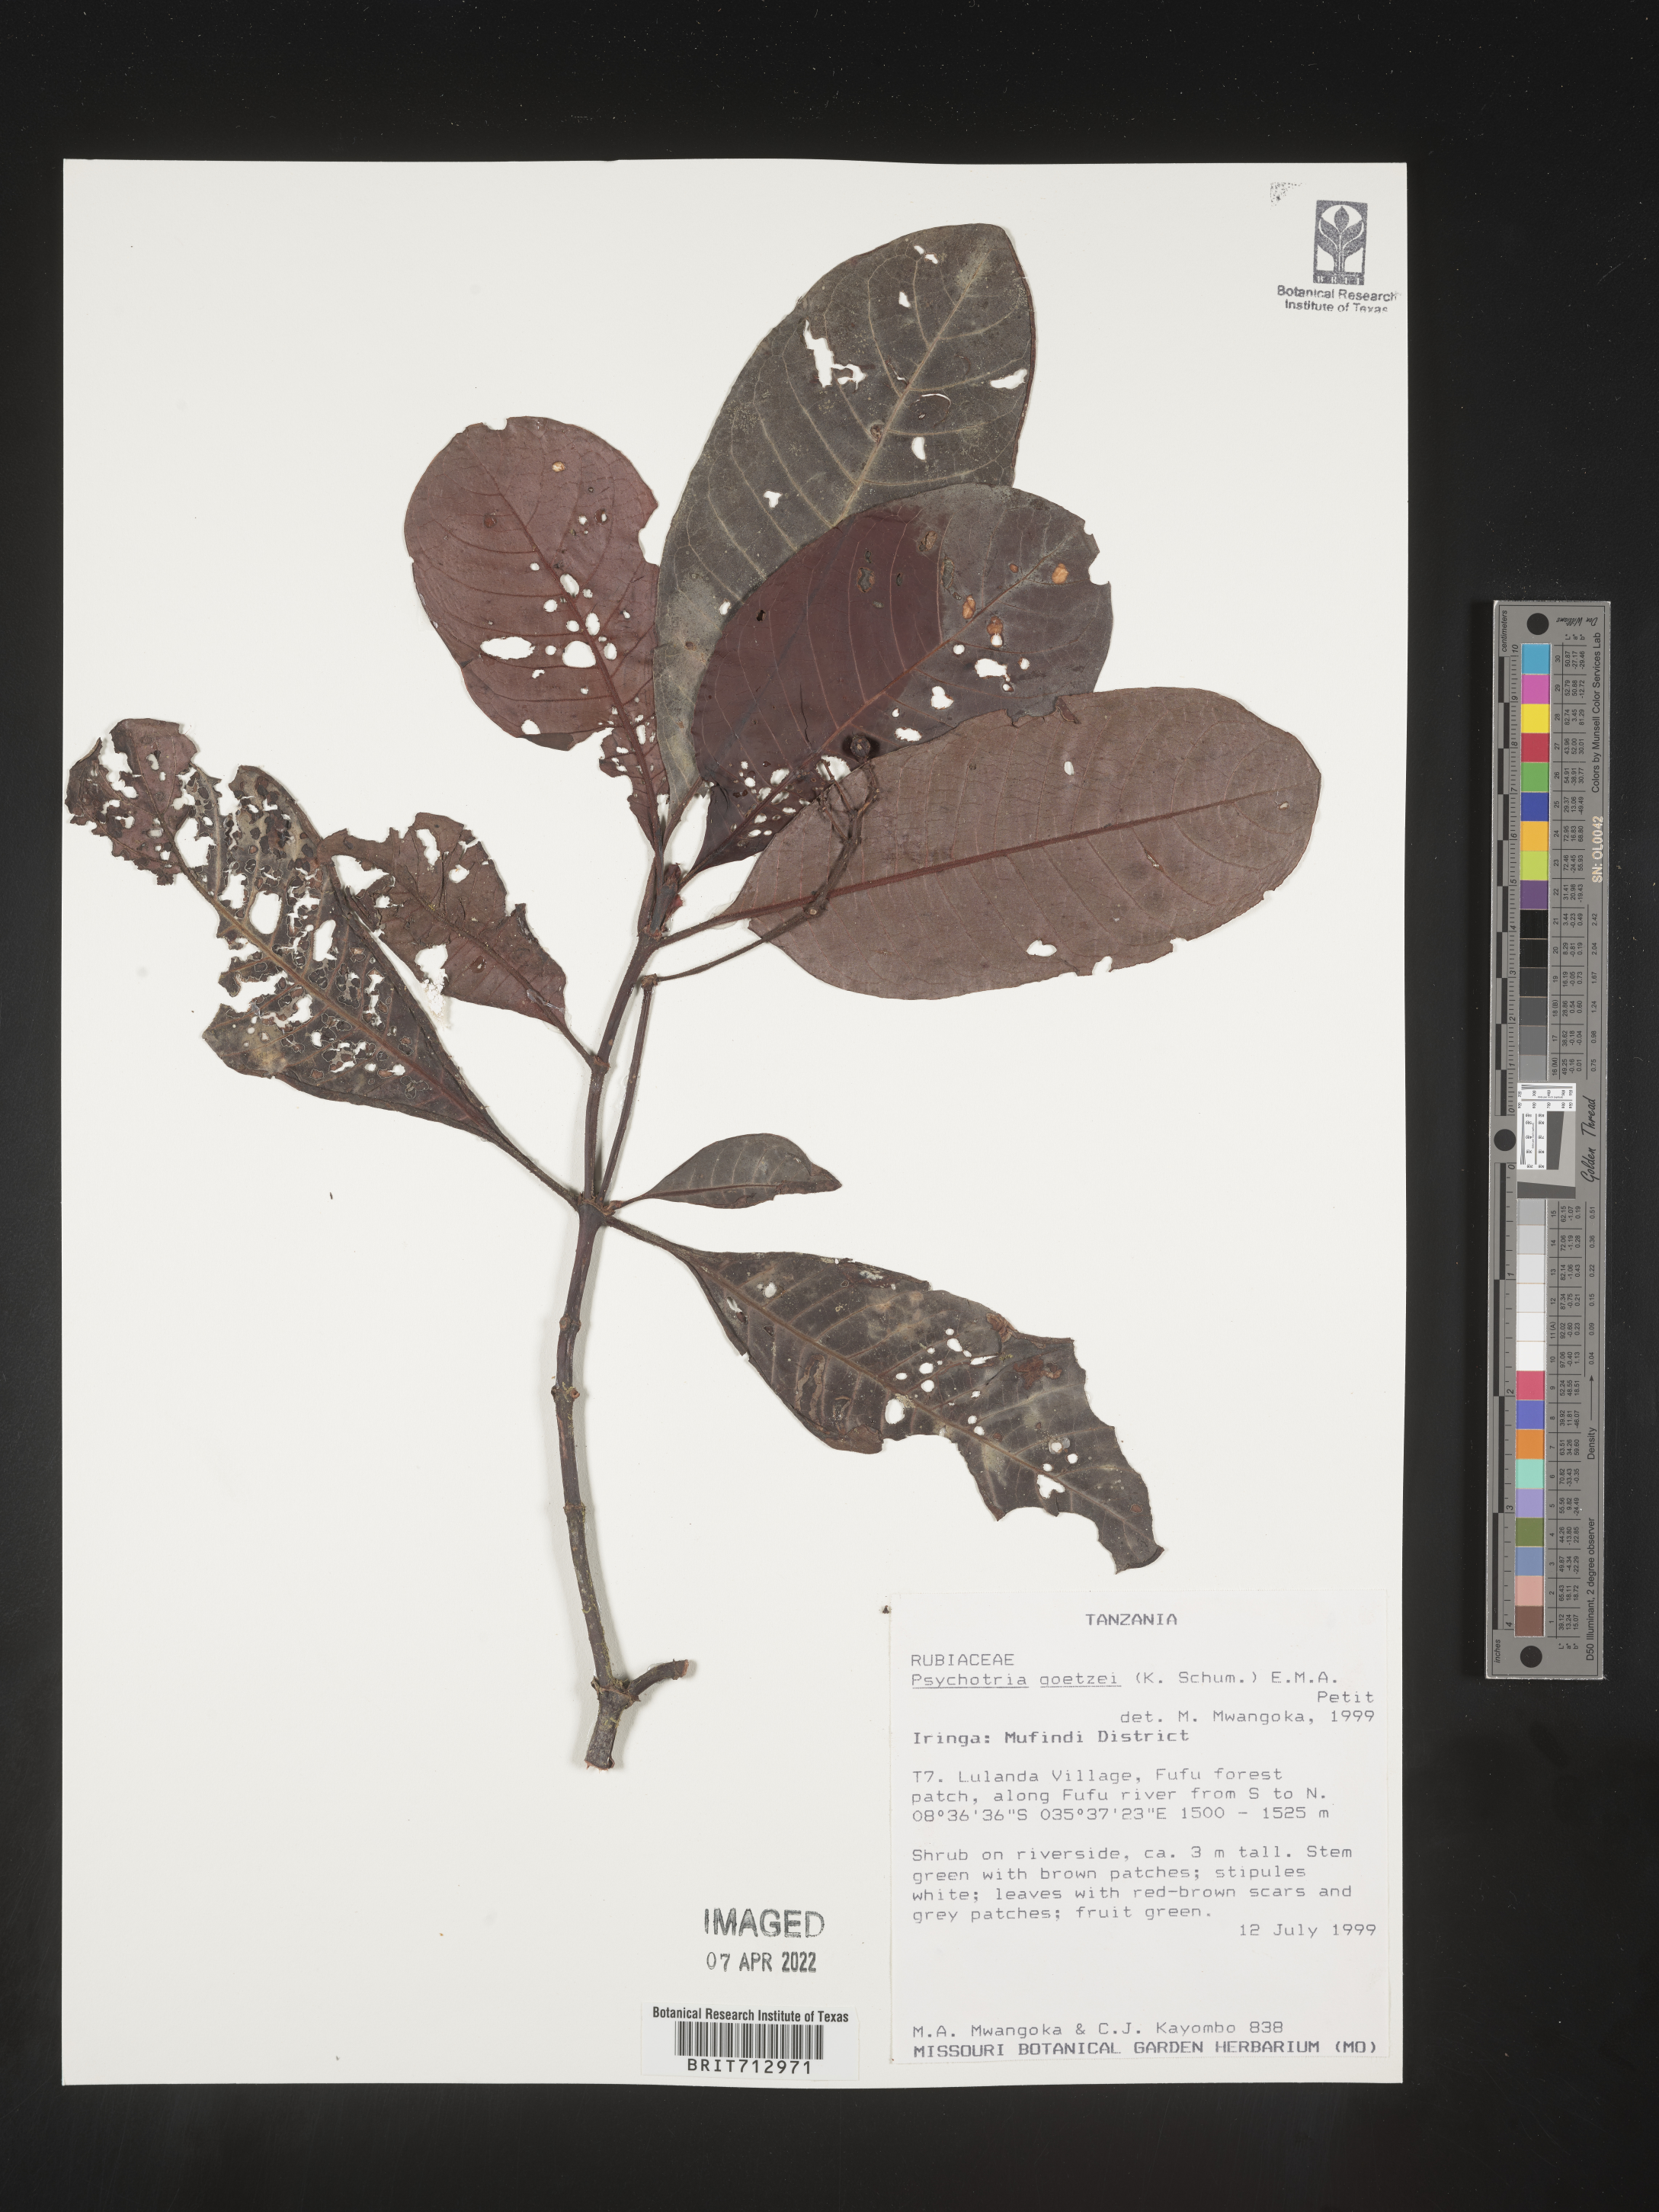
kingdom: Plantae
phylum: Tracheophyta
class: Magnoliopsida
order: Gentianales
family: Rubiaceae
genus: Psychotria
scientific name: Psychotria
